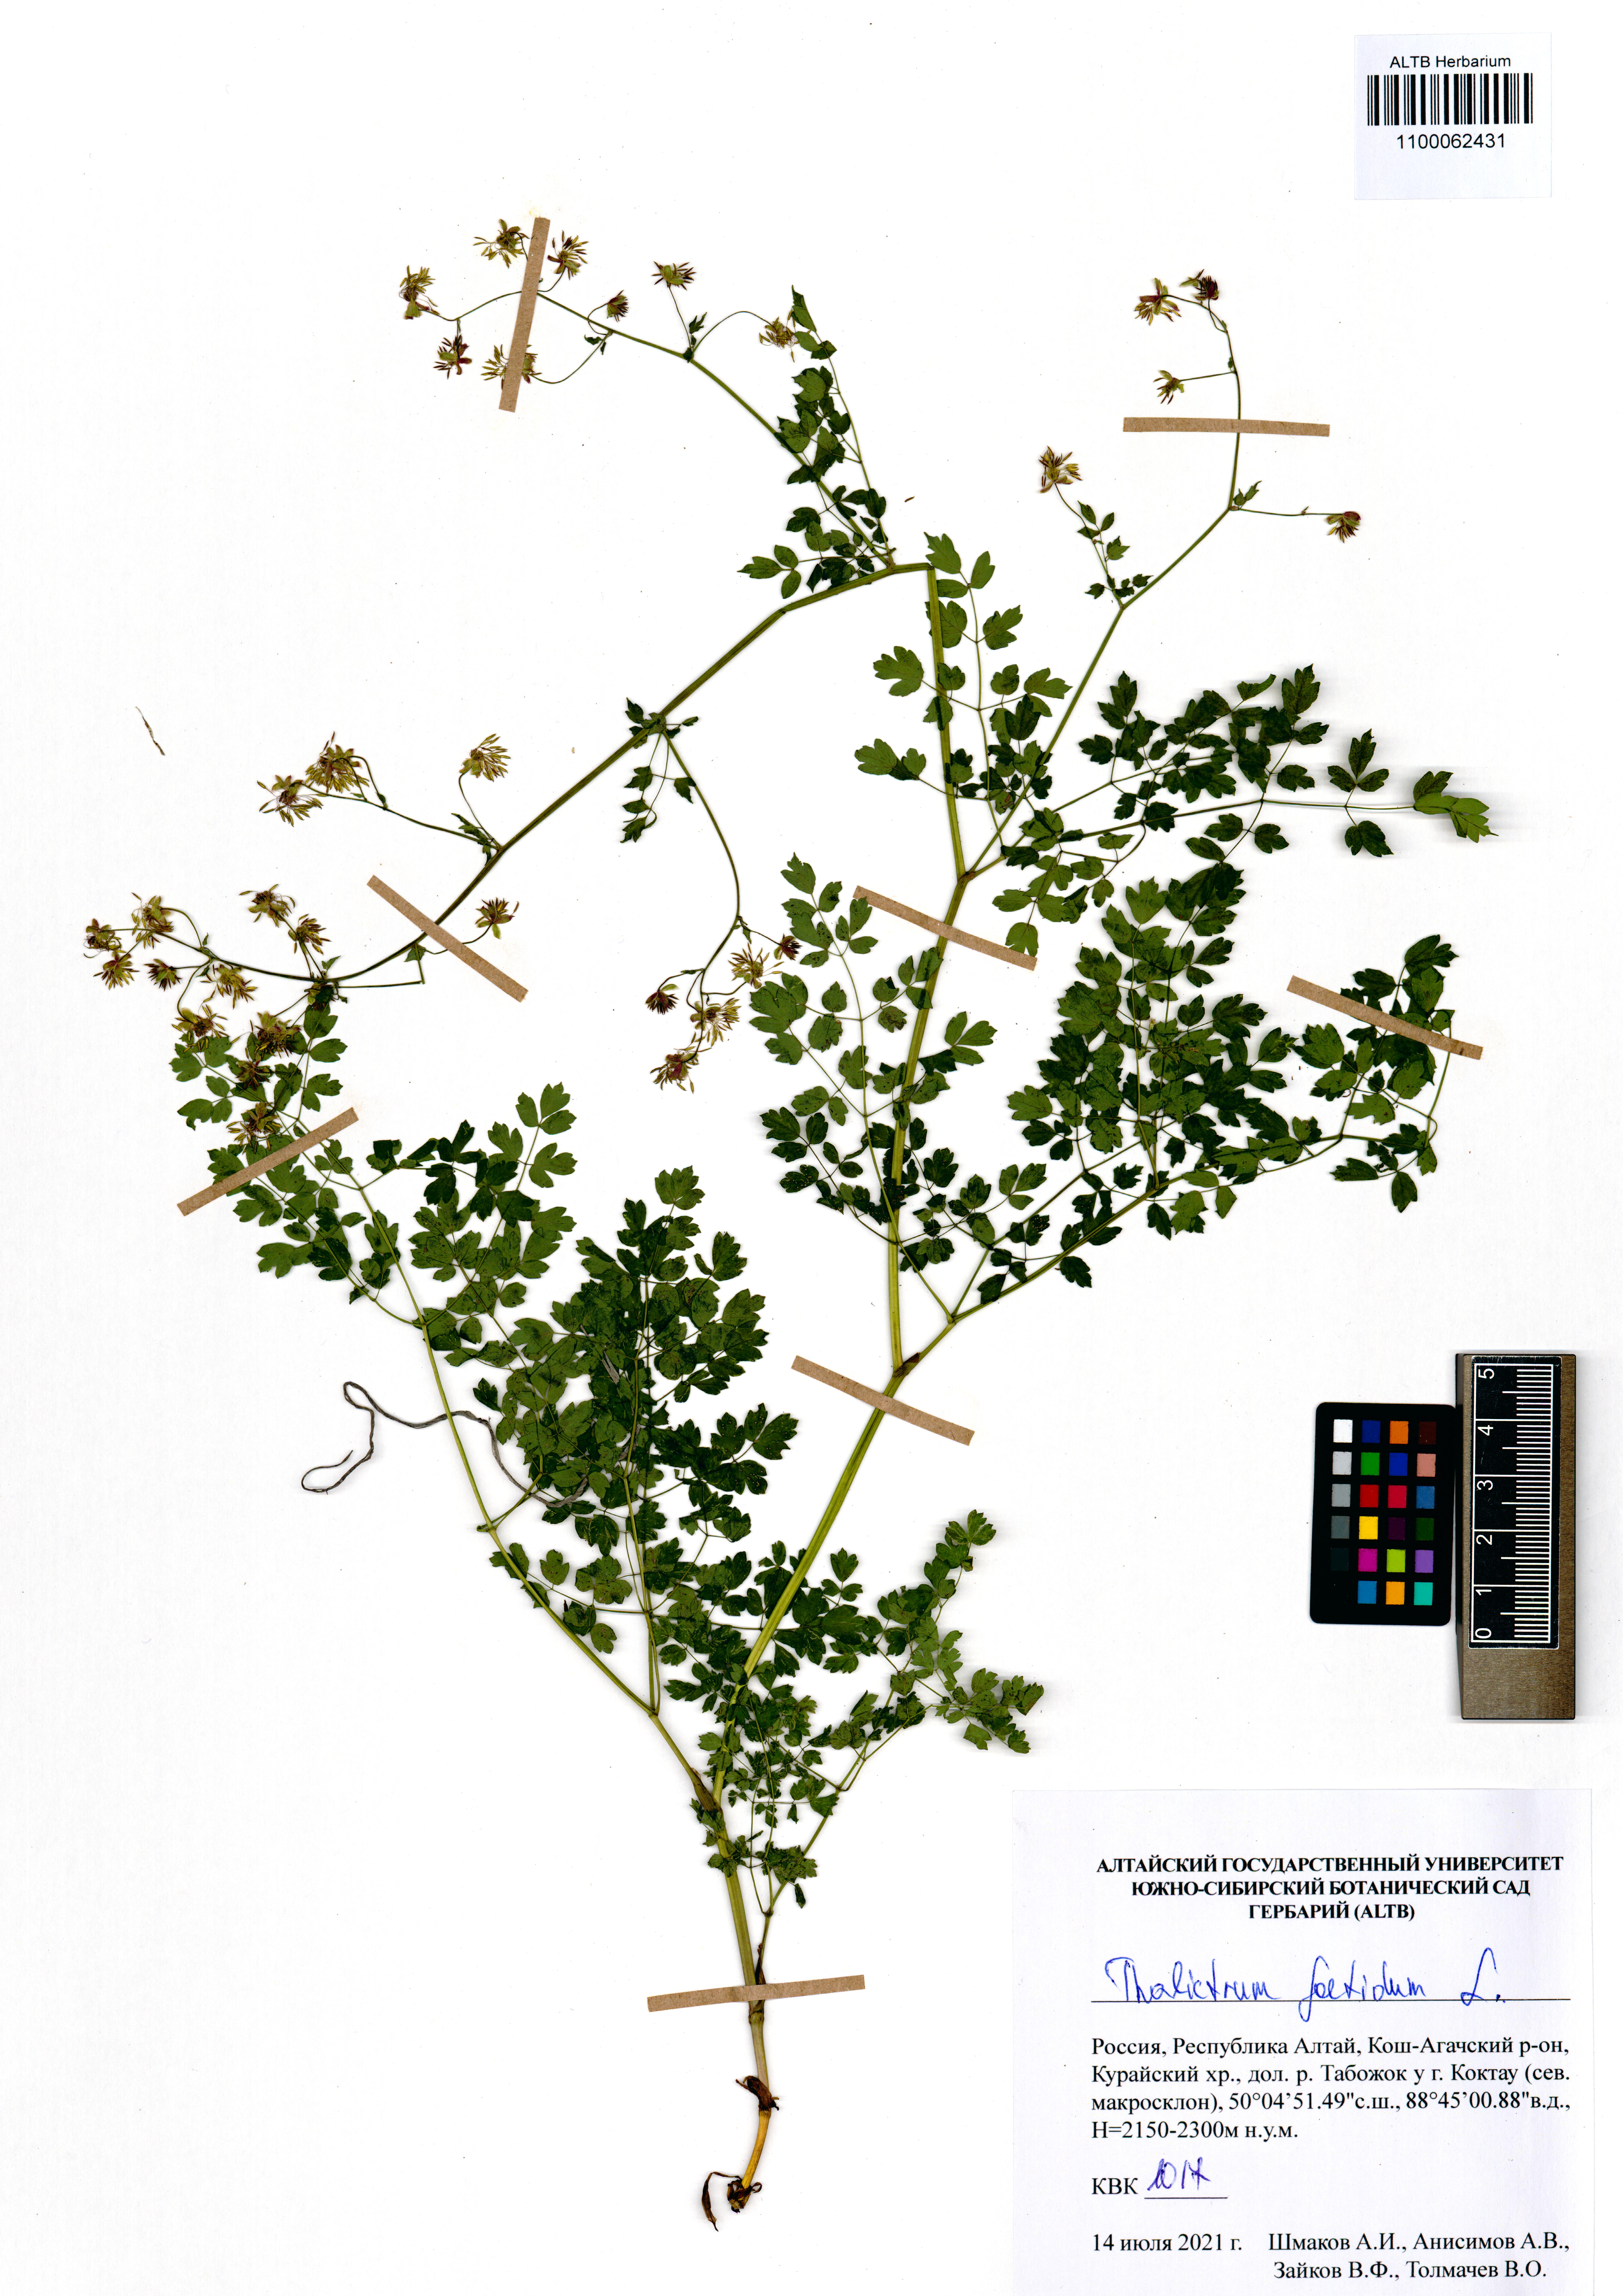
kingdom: Plantae
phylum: Tracheophyta
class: Magnoliopsida
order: Ranunculales
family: Ranunculaceae
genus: Thalictrum
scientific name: Thalictrum foetidum
